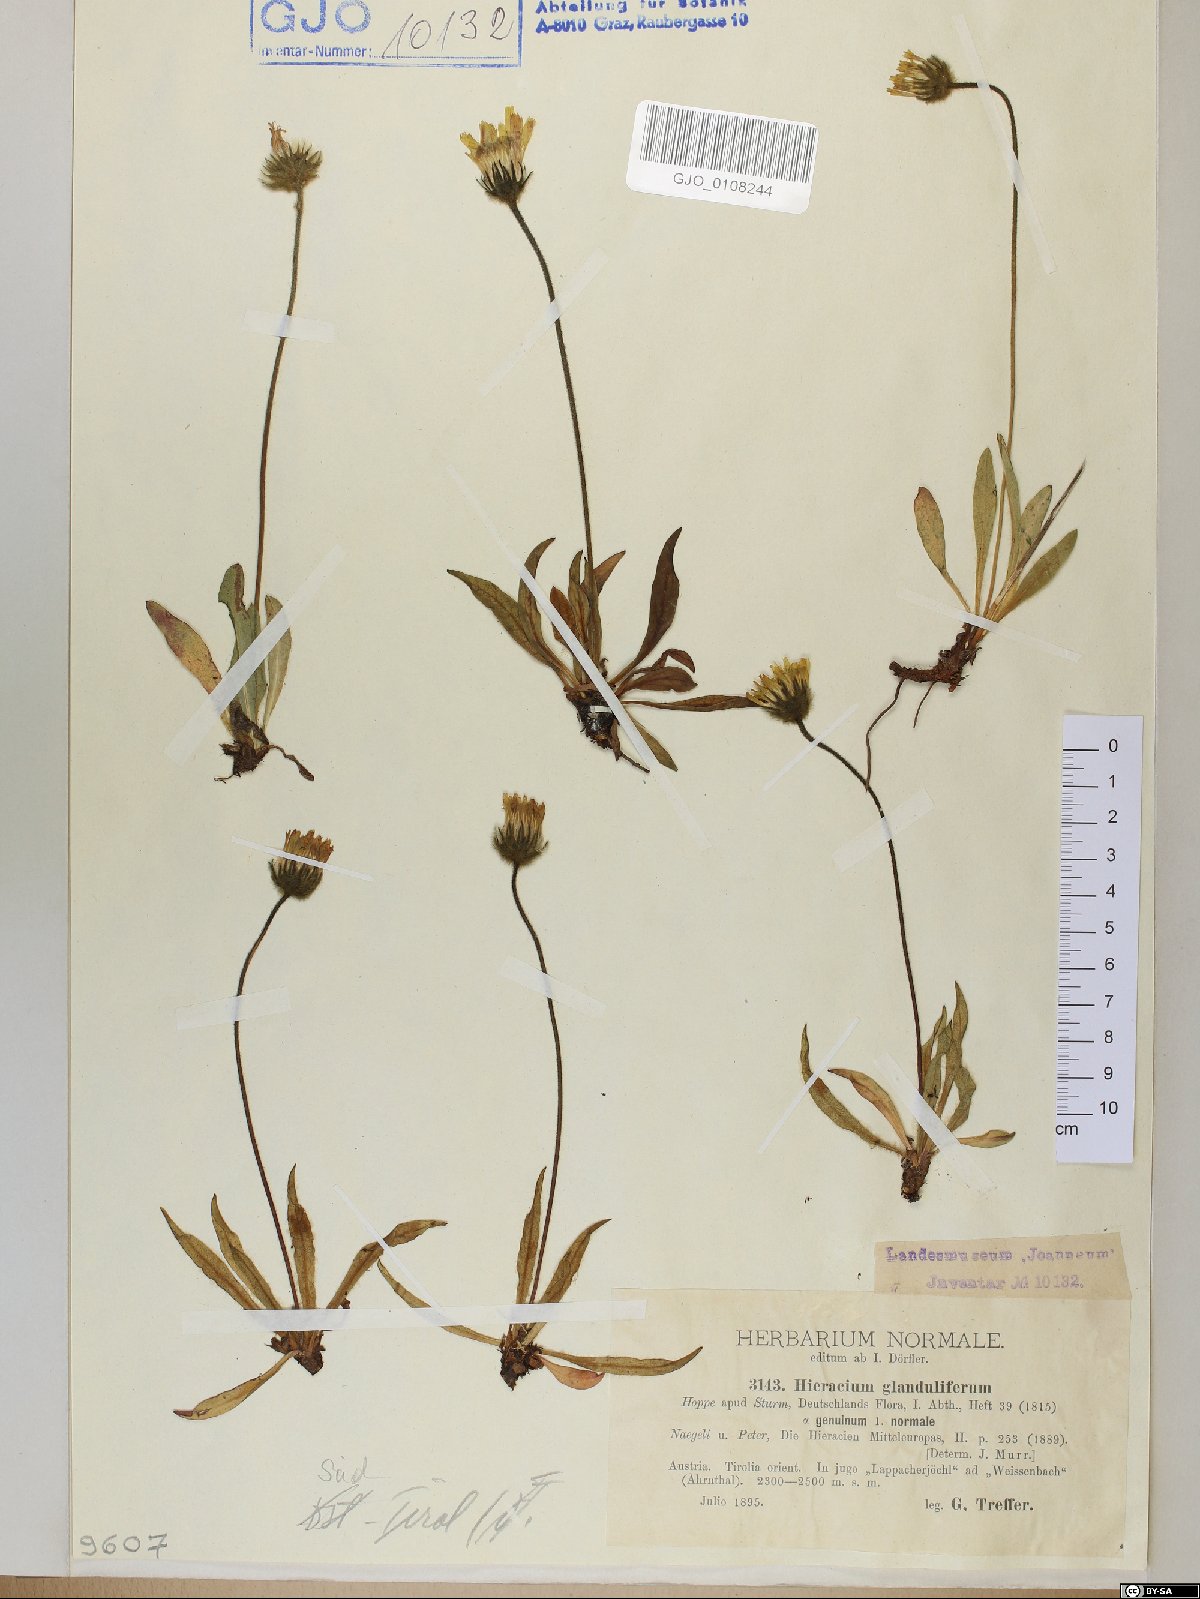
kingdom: Plantae
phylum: Tracheophyta
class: Magnoliopsida
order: Asterales
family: Asteraceae
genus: Hieracium
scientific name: Hieracium piliferum
